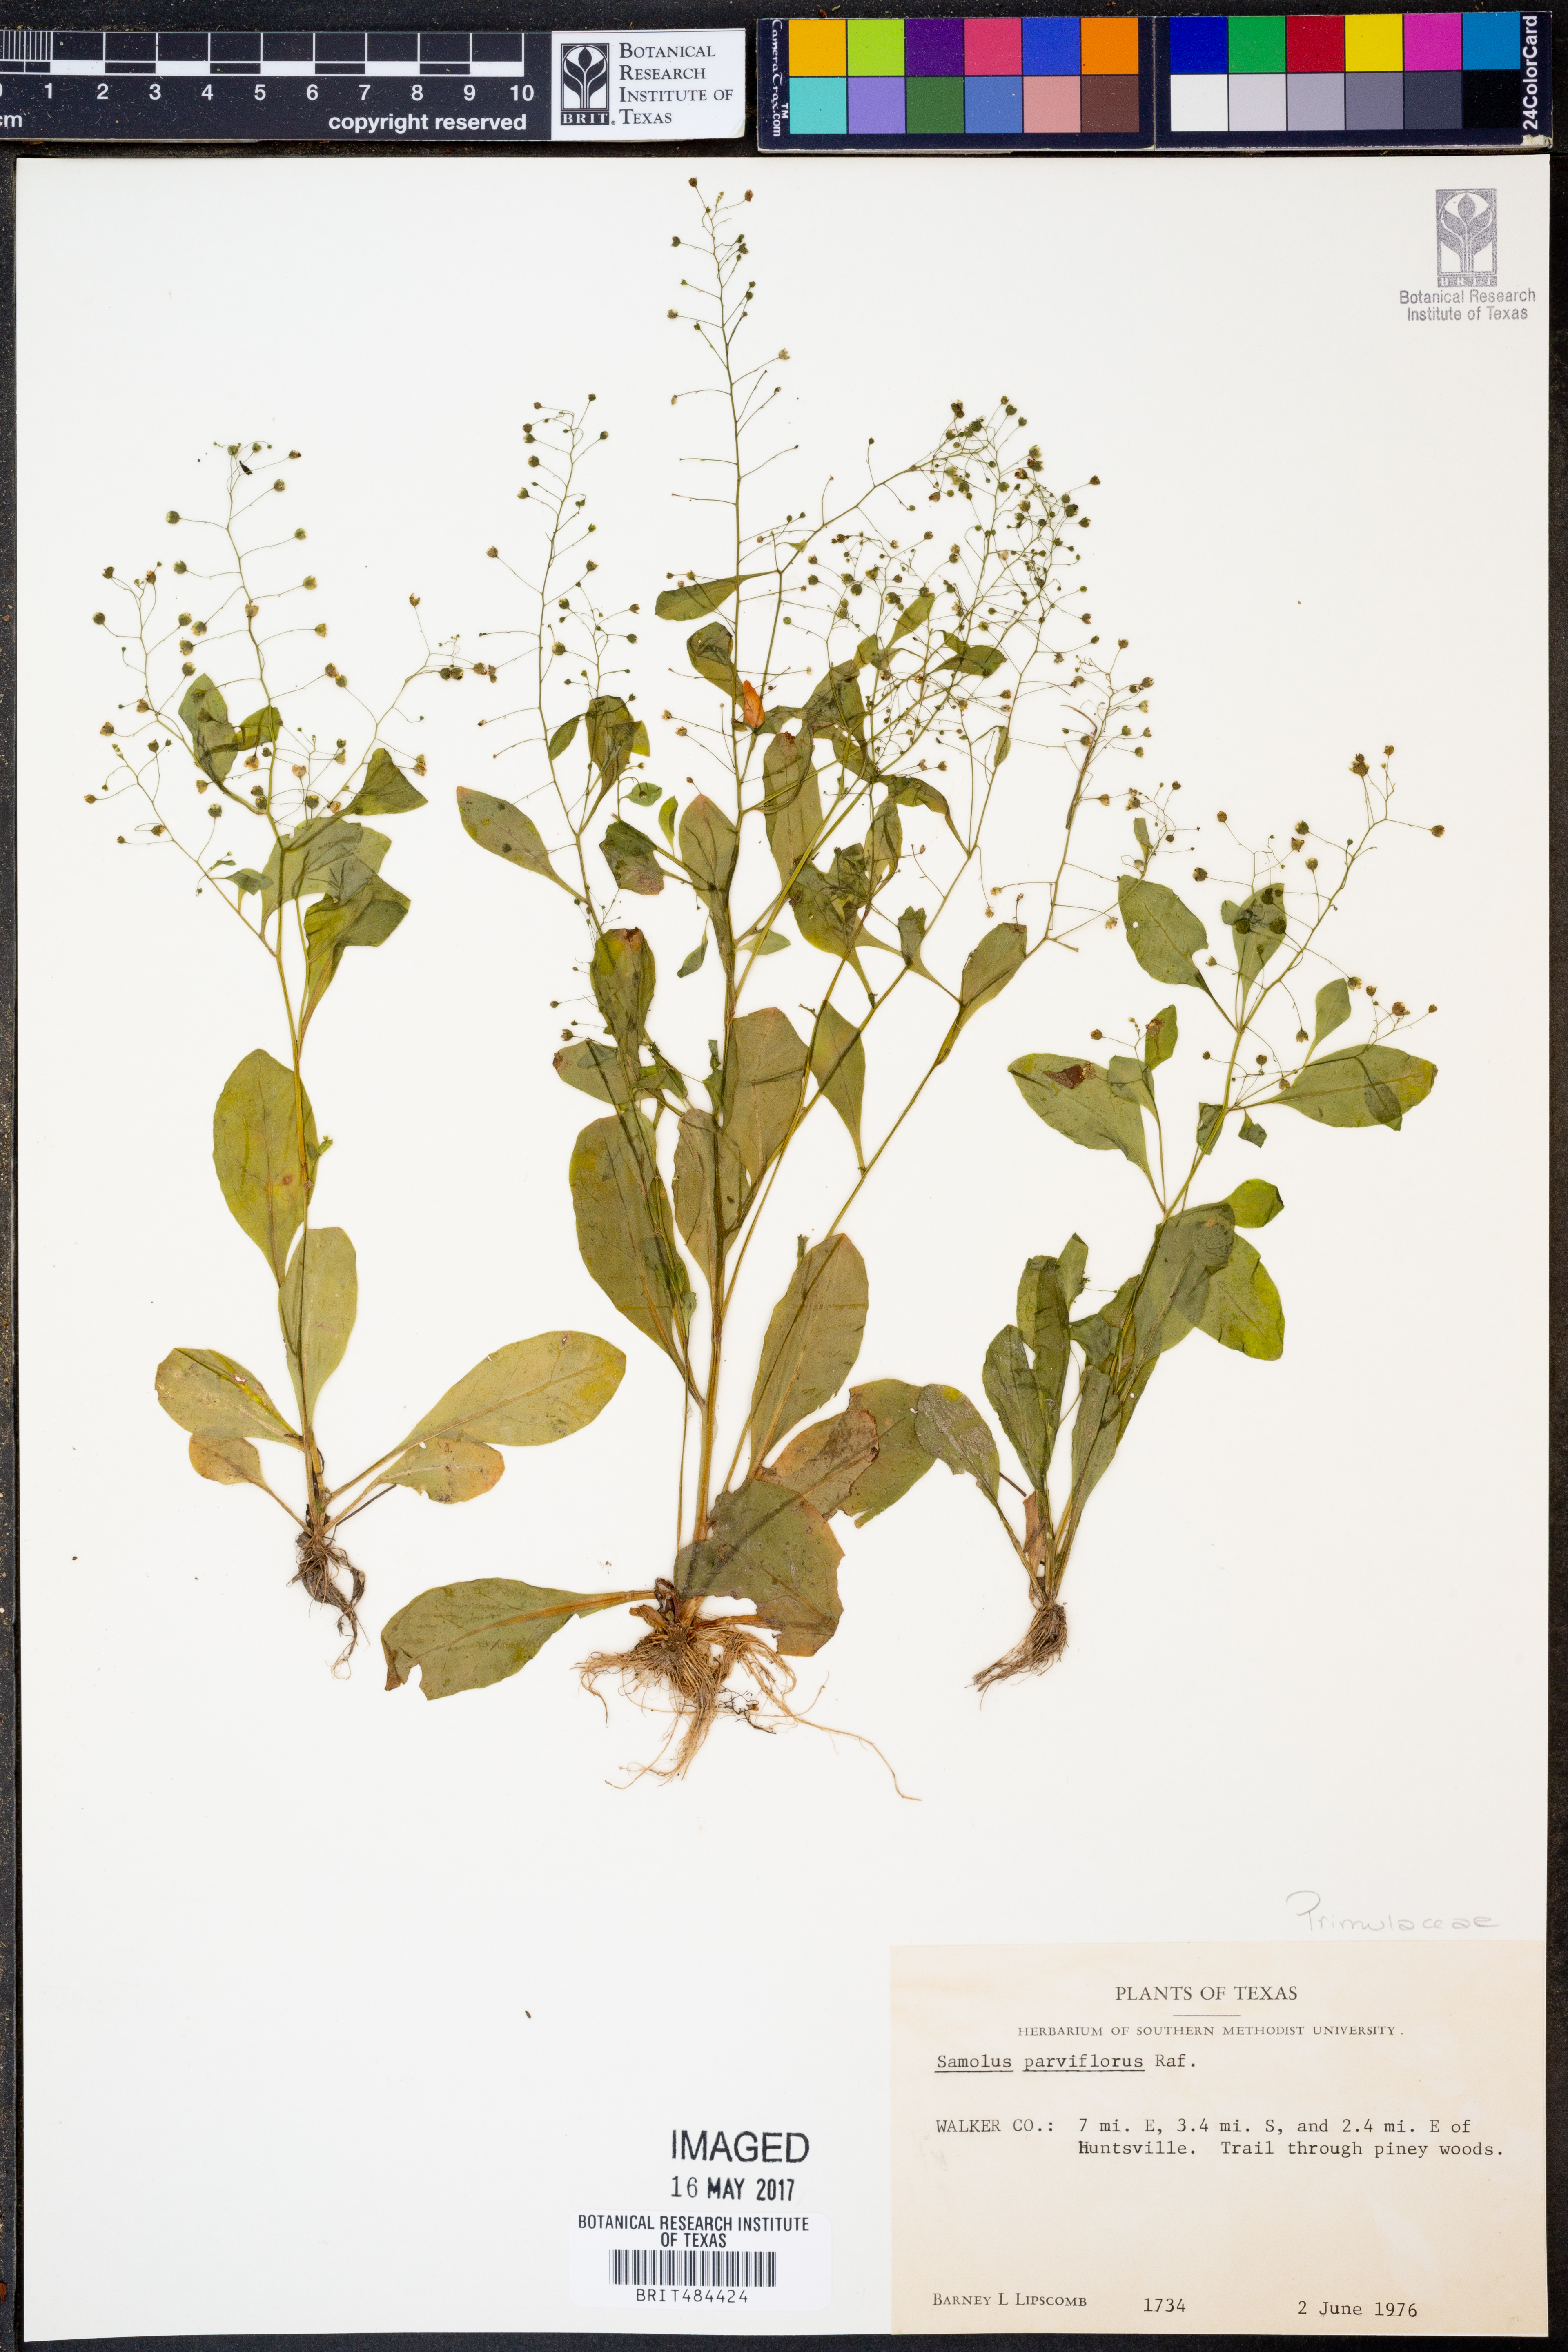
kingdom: Plantae
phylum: Tracheophyta
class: Magnoliopsida
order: Ericales
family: Primulaceae
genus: Samolus
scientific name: Samolus parviflorus
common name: False water pimpernel
